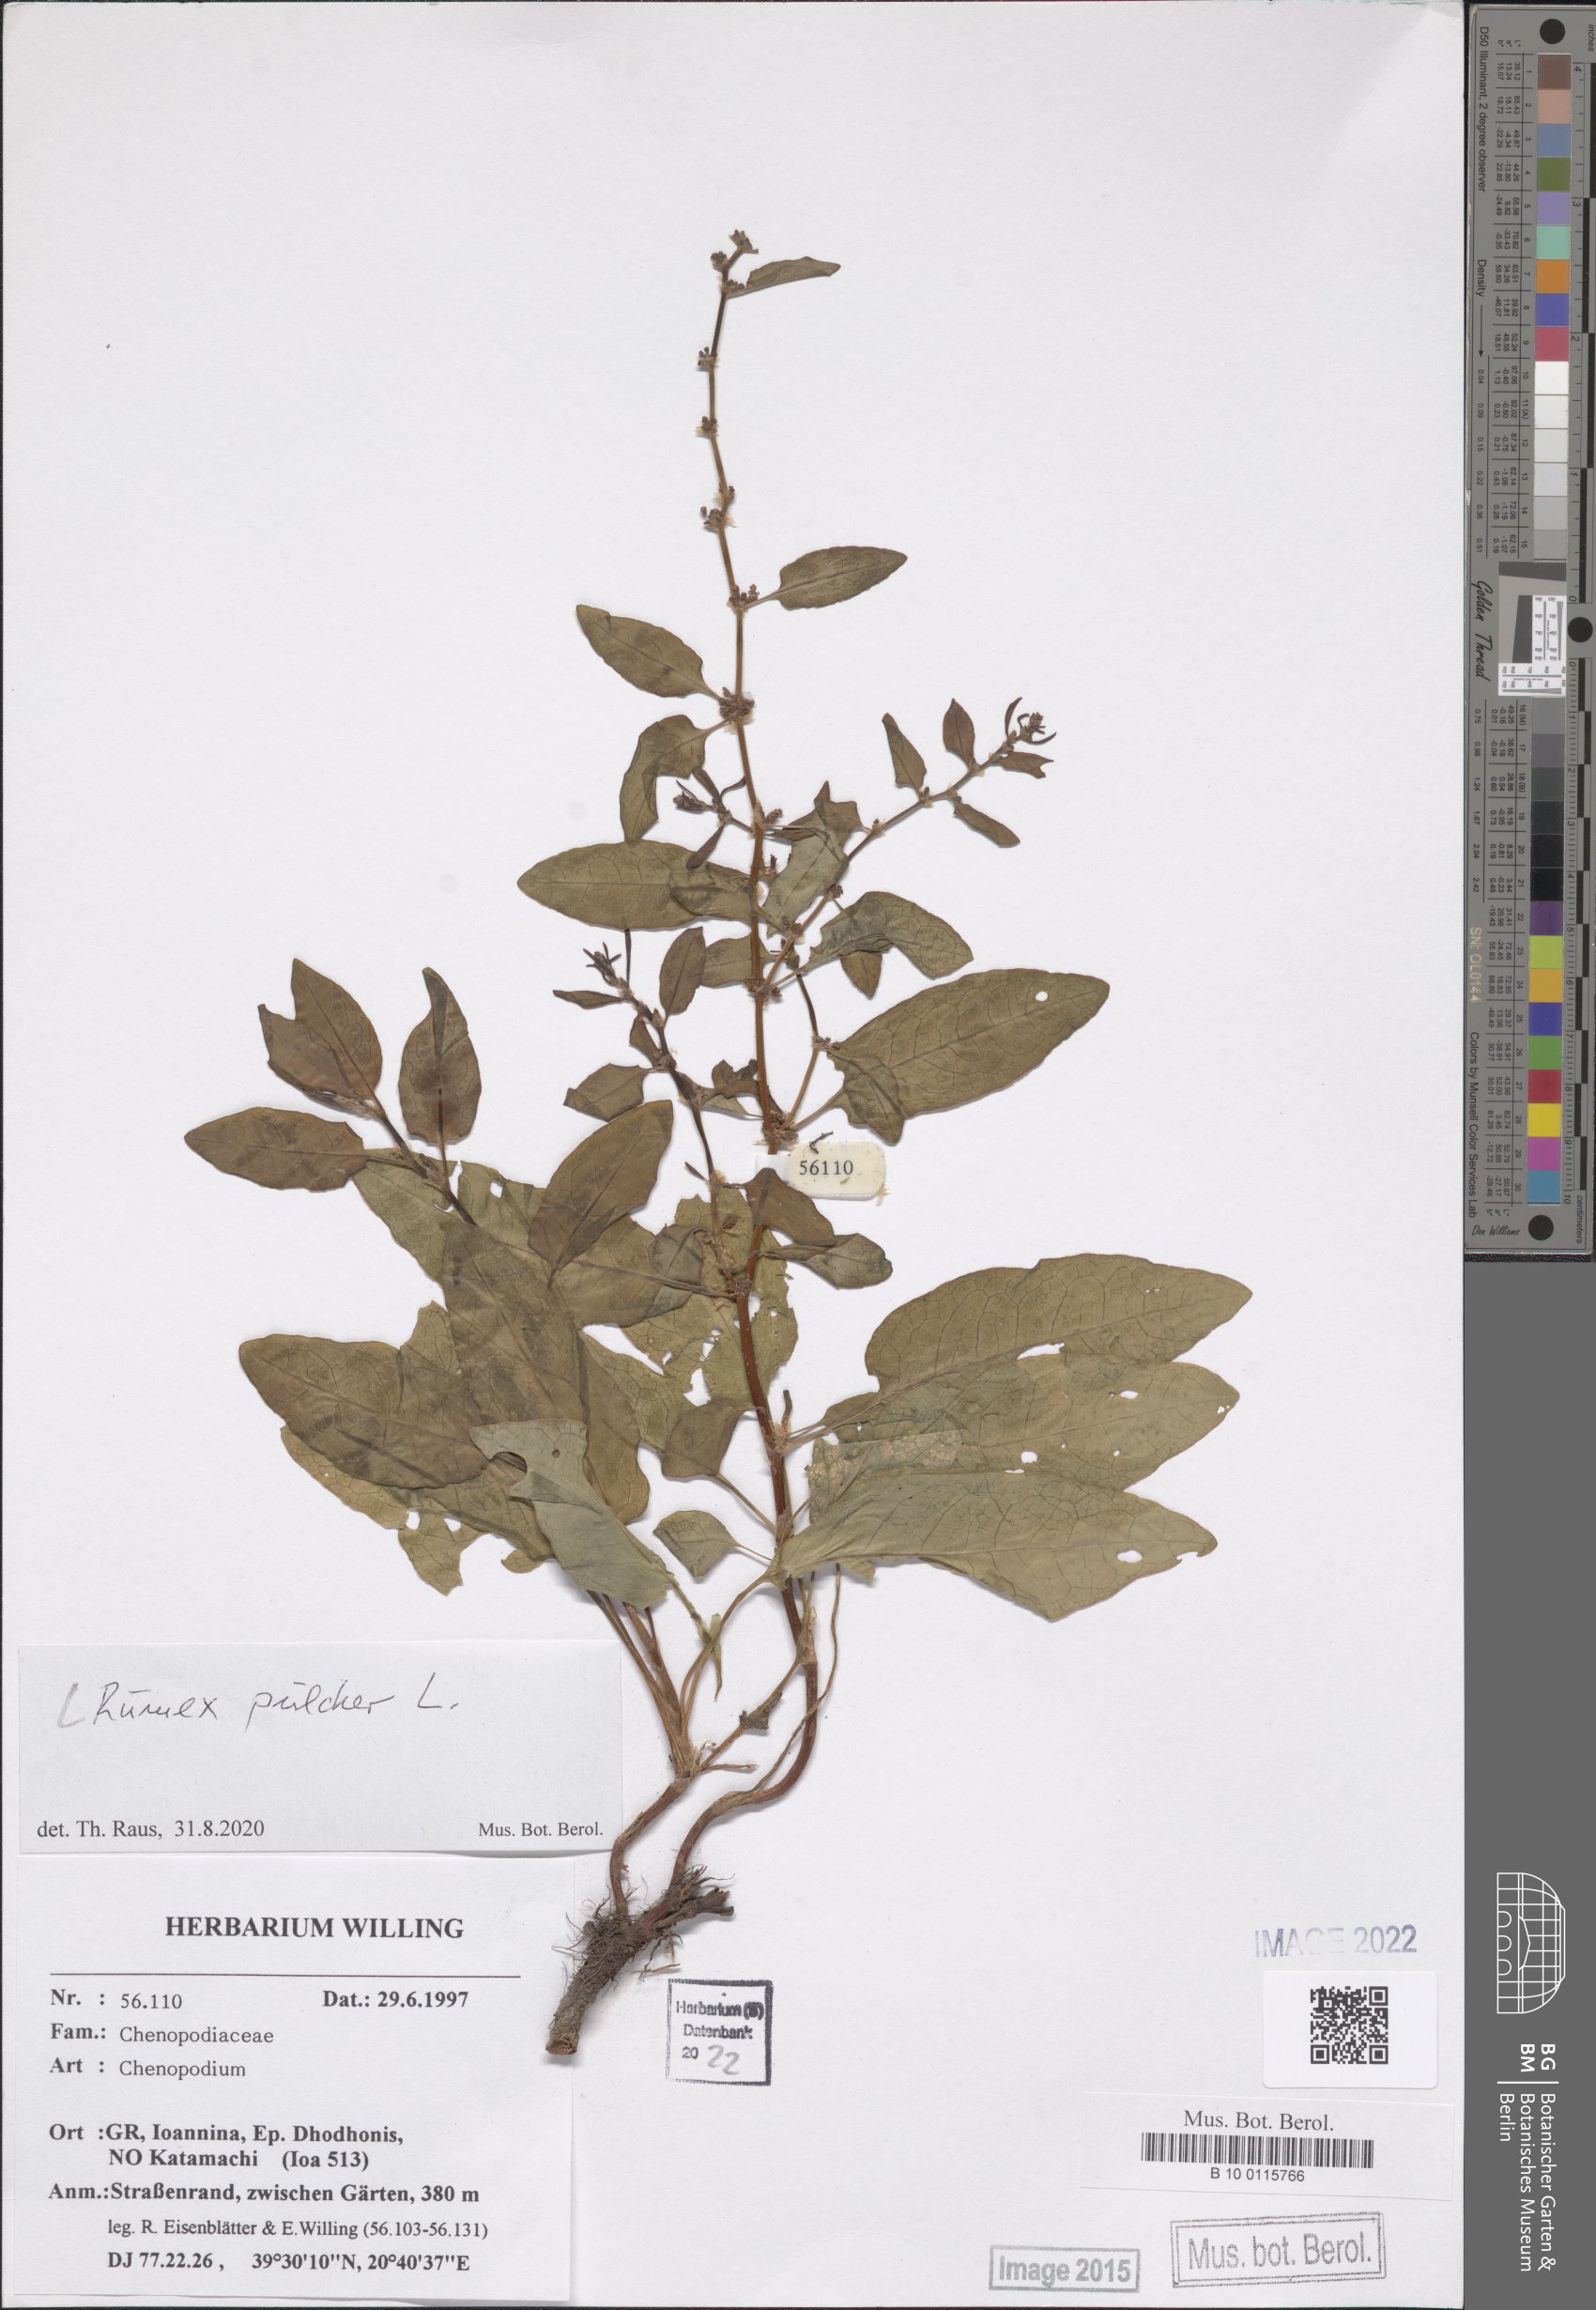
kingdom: Plantae
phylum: Tracheophyta
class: Magnoliopsida
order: Caryophyllales
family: Polygonaceae
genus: Rumex
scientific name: Rumex pulcher
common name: Fiddle dock
